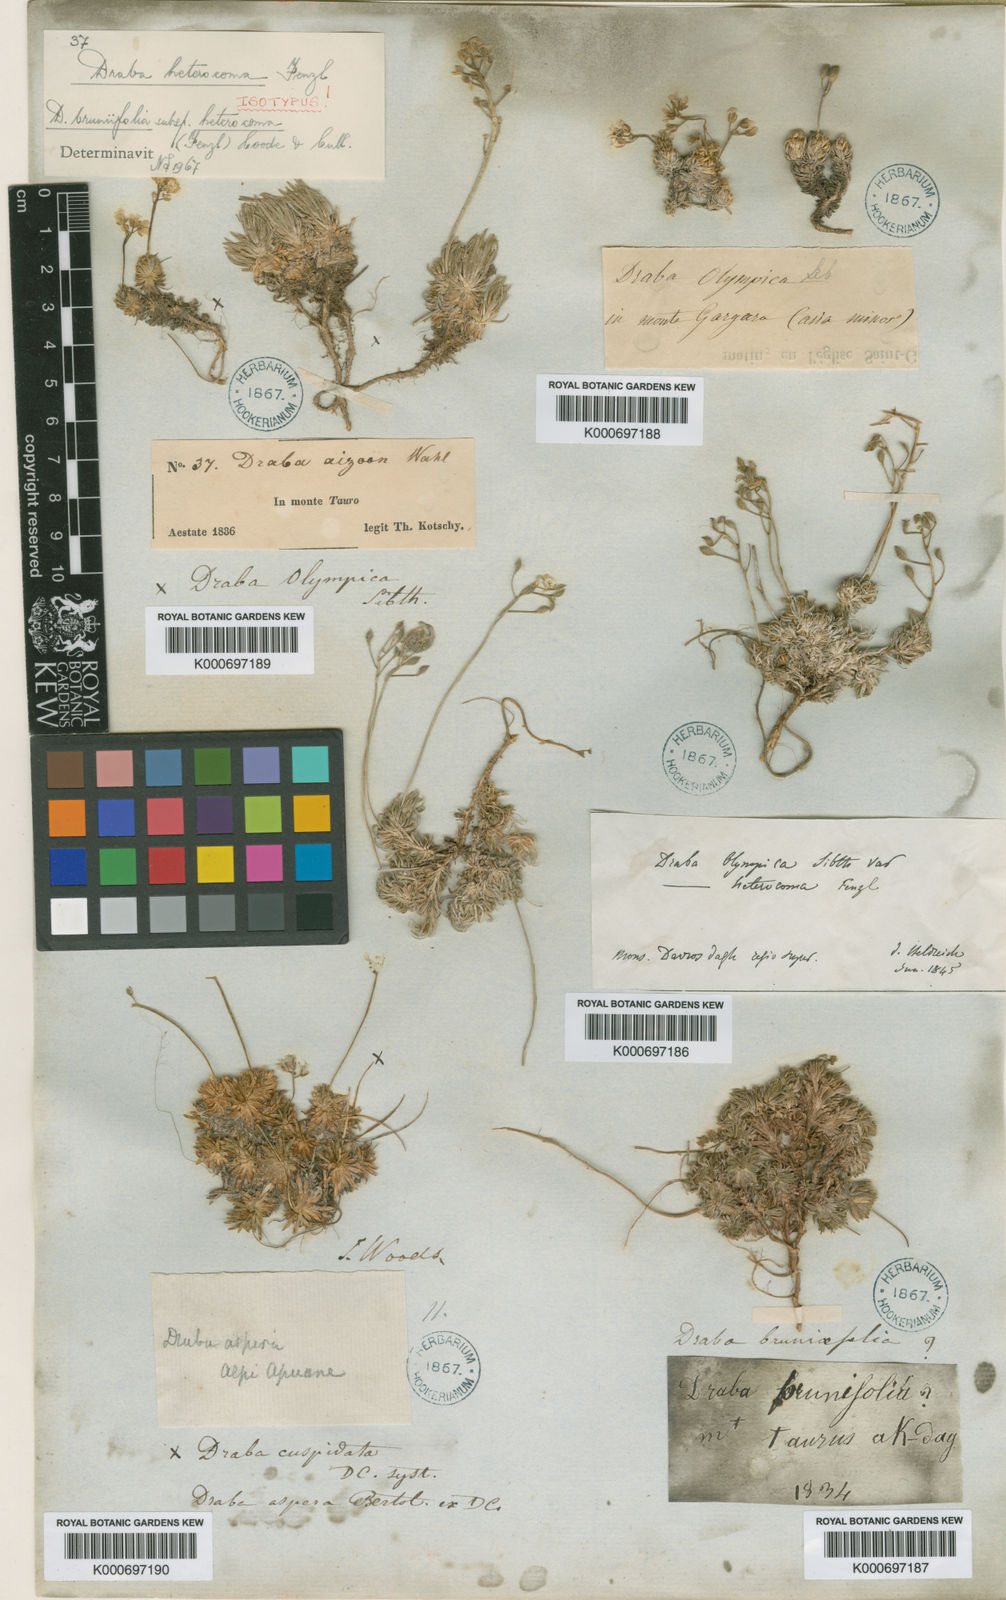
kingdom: Plantae
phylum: Tracheophyta
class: Magnoliopsida
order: Brassicales
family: Brassicaceae
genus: Draba
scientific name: Draba bruniifolia
